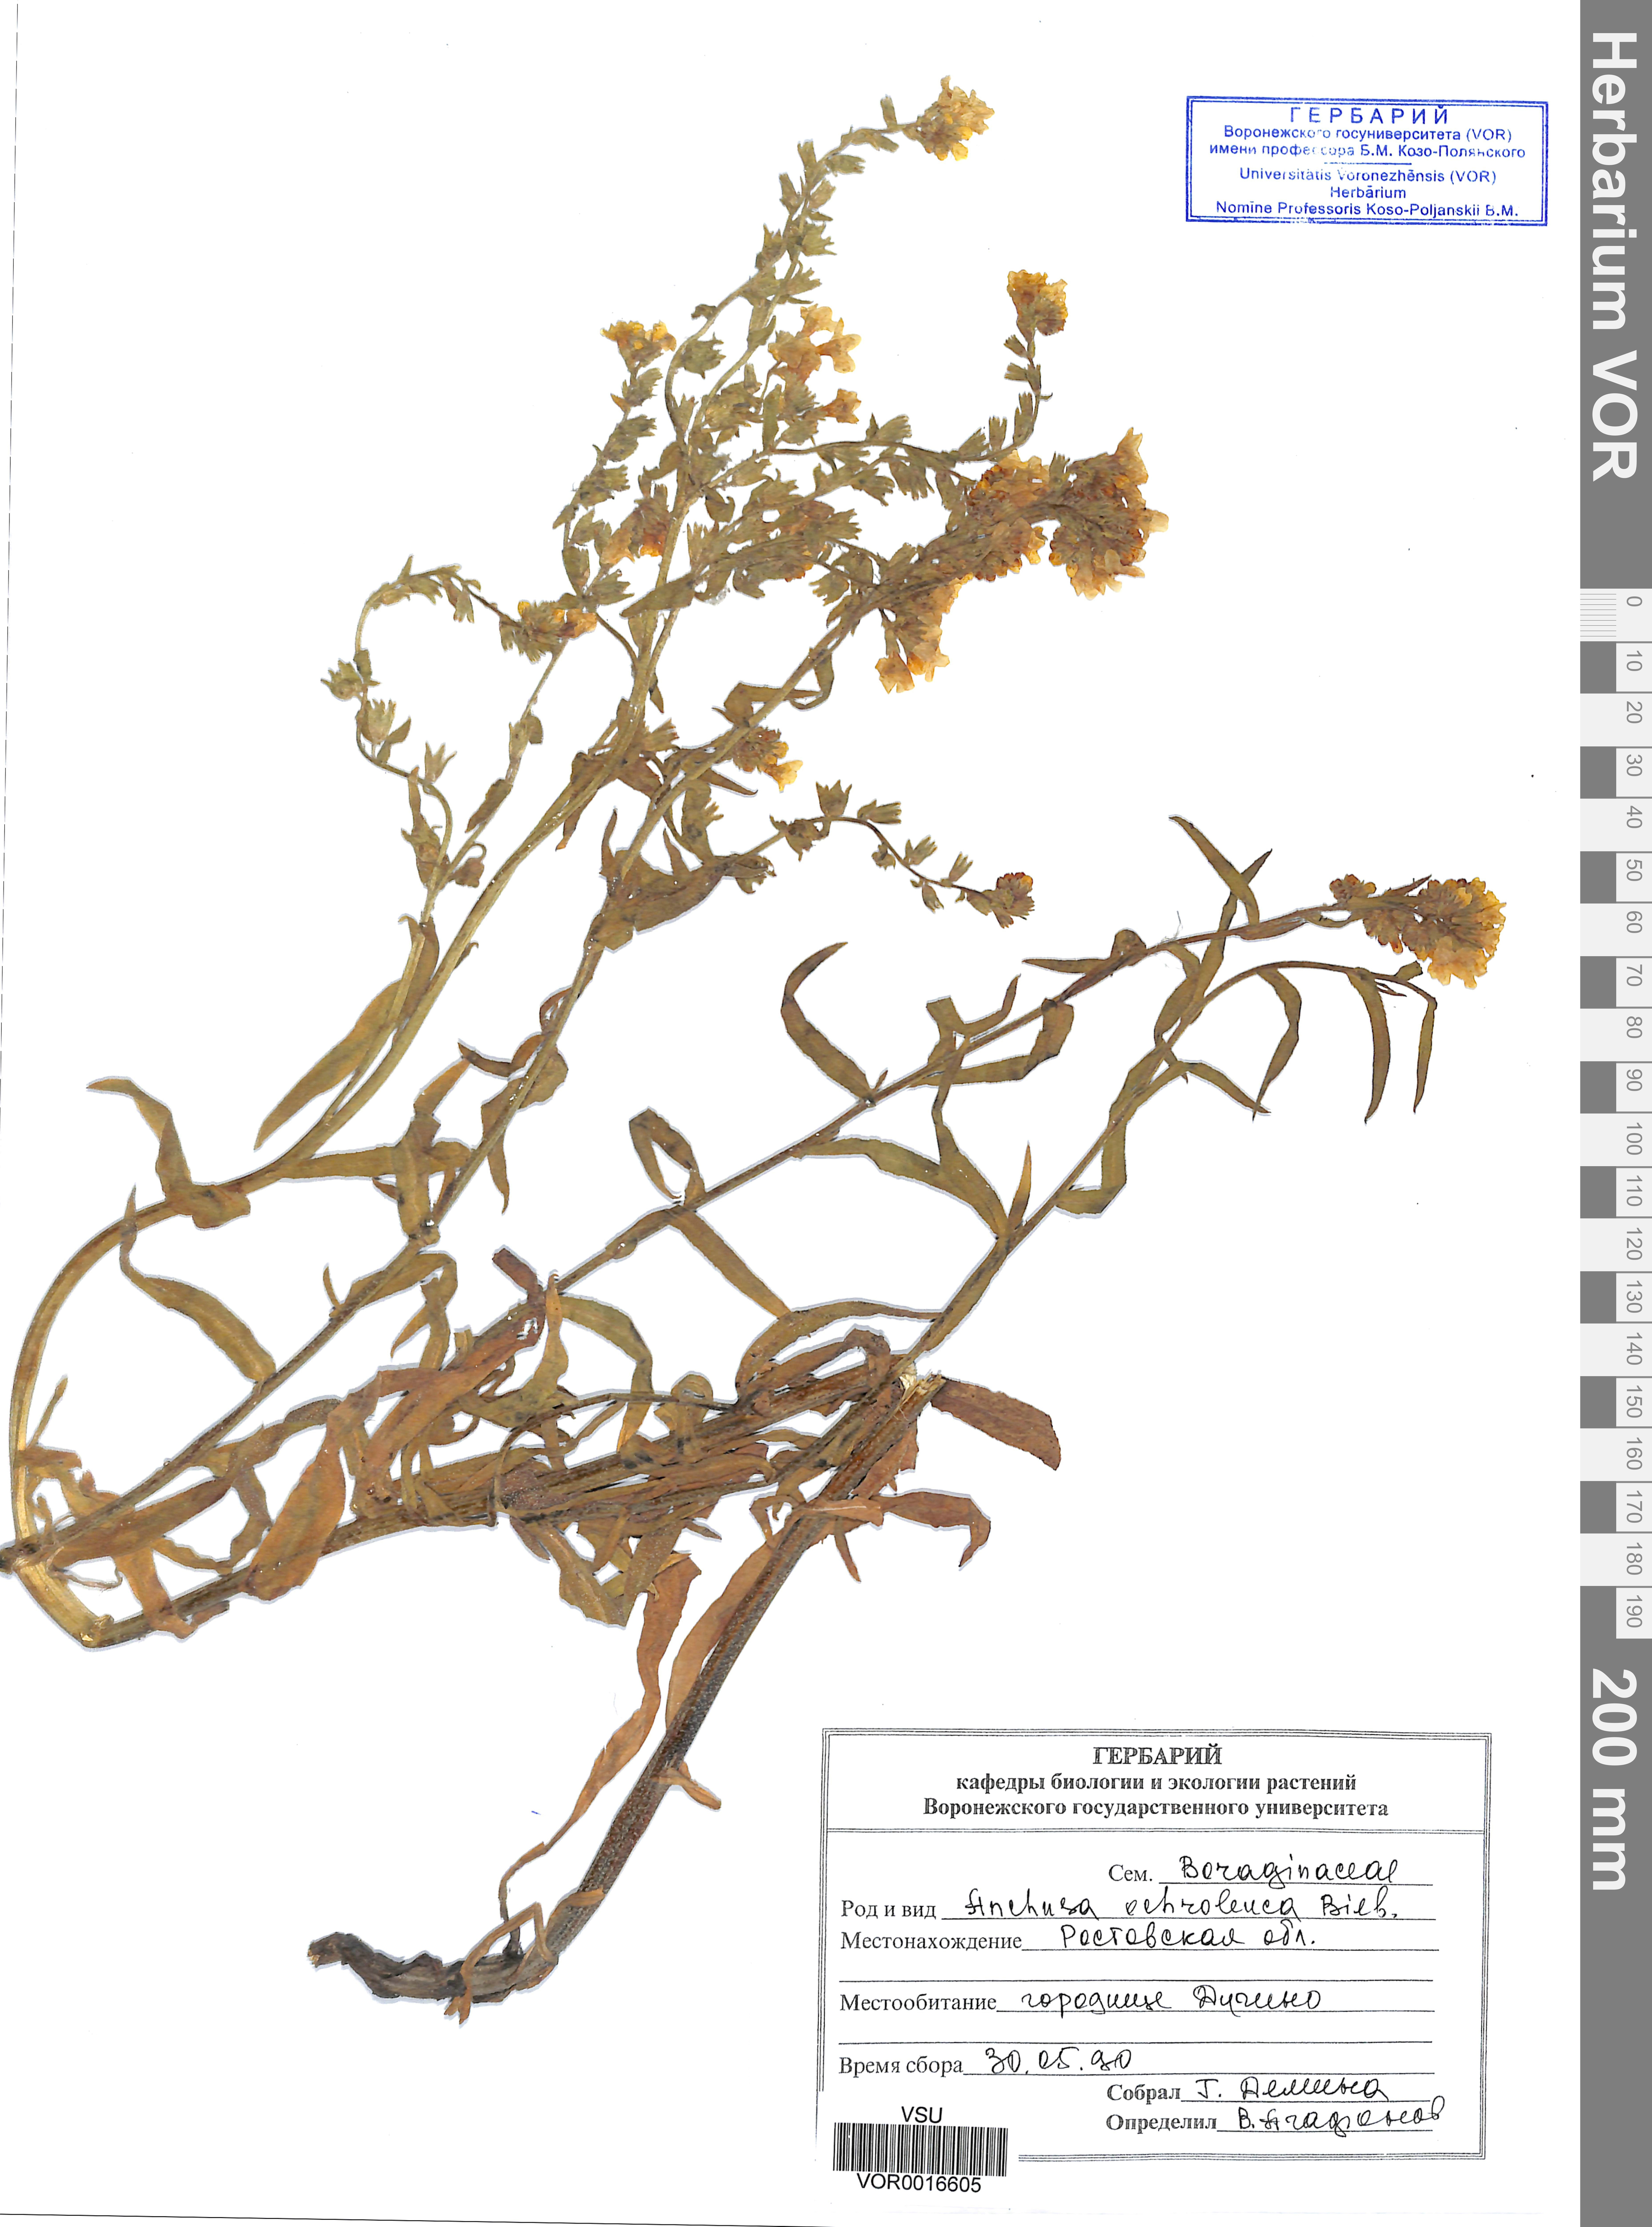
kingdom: Plantae
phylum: Tracheophyta
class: Magnoliopsida
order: Boraginales
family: Boraginaceae
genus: Anchusa
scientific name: Anchusa ochroleuca
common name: Yellow alkanet
